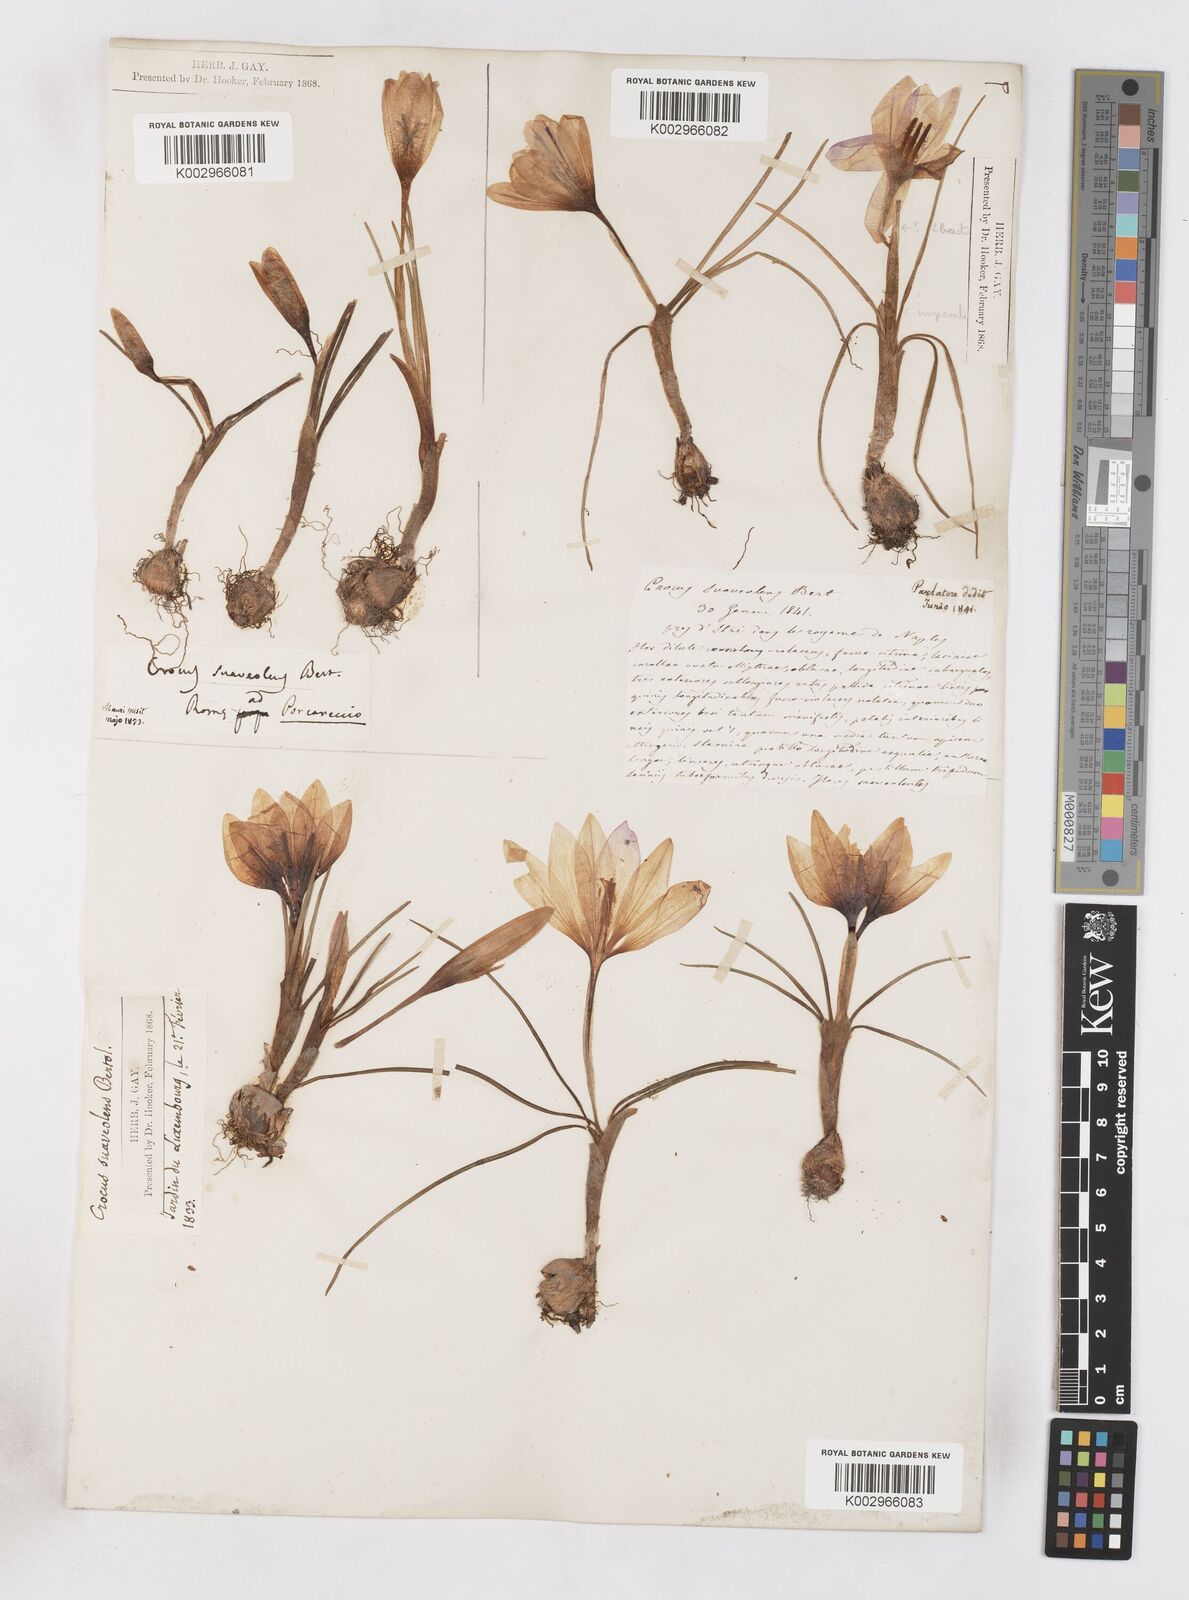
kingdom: Plantae
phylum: Tracheophyta
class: Liliopsida
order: Asparagales
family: Iridaceae
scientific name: Iridaceae
